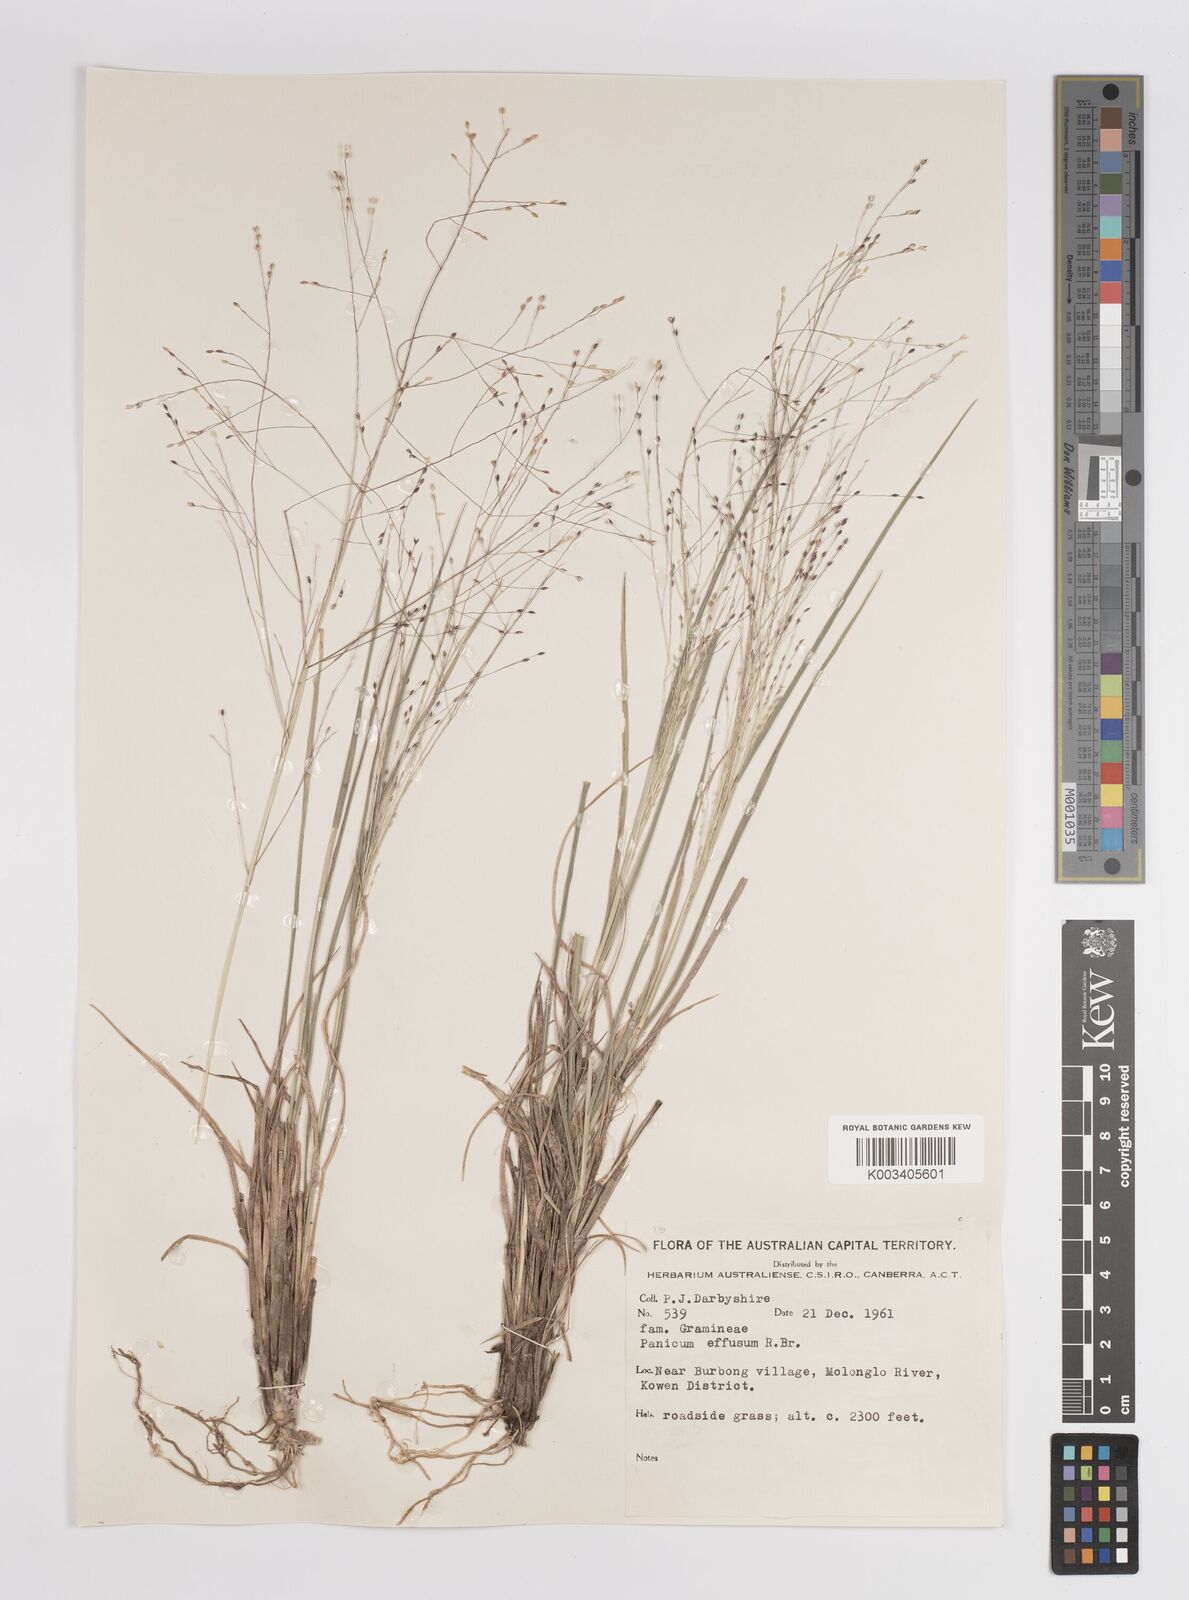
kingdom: Plantae
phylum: Tracheophyta
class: Liliopsida
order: Poales
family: Poaceae
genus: Panicum
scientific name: Panicum
